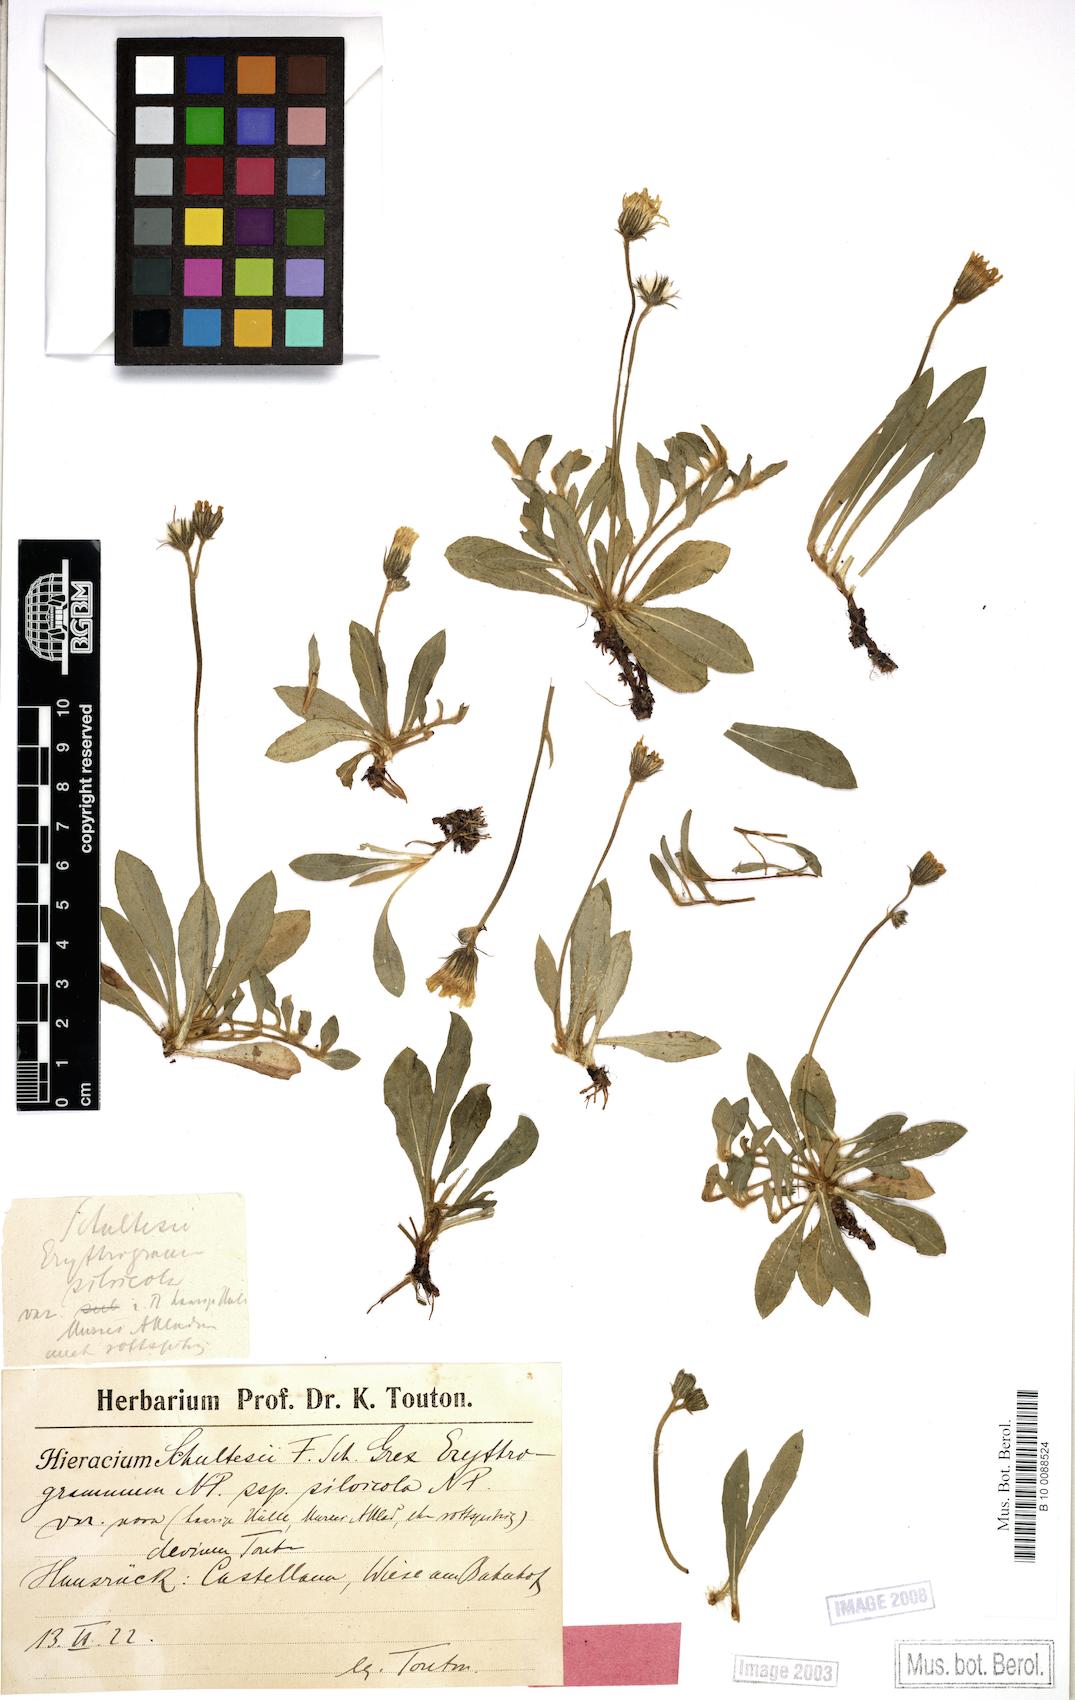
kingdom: Plantae
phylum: Tracheophyta
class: Magnoliopsida
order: Asterales
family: Asteraceae
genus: Pilosella
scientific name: Pilosella schultesii
